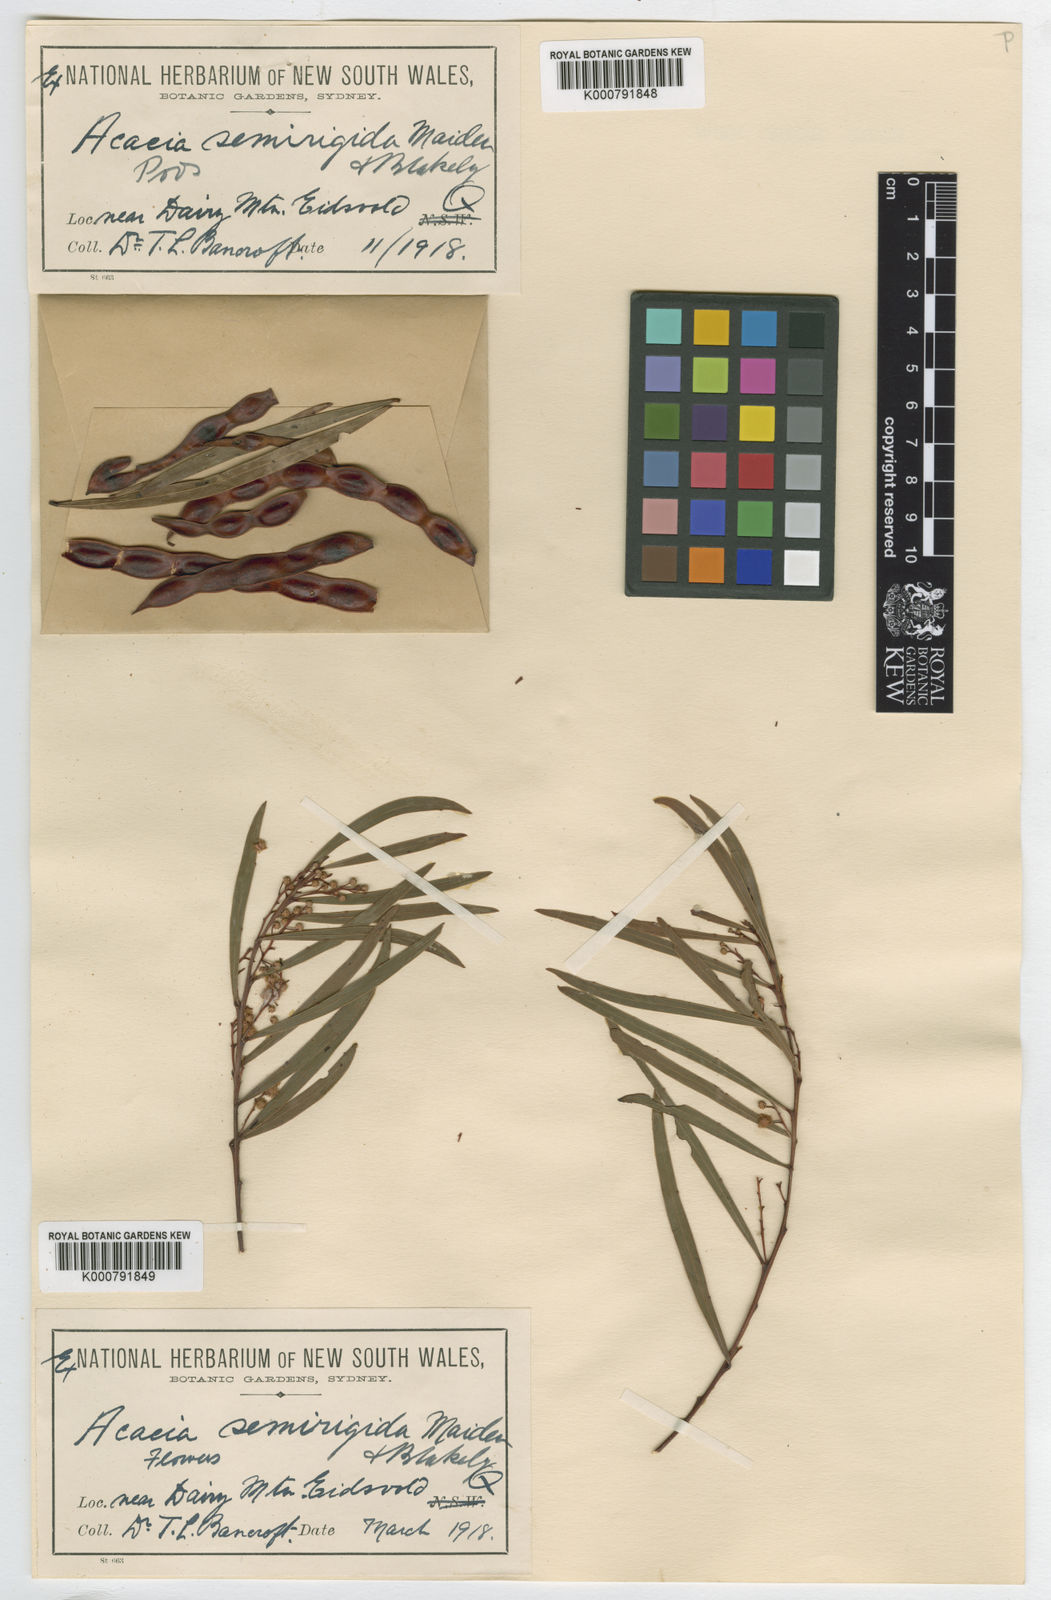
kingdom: Plantae
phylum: Tracheophyta
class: Magnoliopsida
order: Fabales
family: Fabaceae
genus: Acacia
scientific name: Acacia semirigida
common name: Stony ridge wattle
